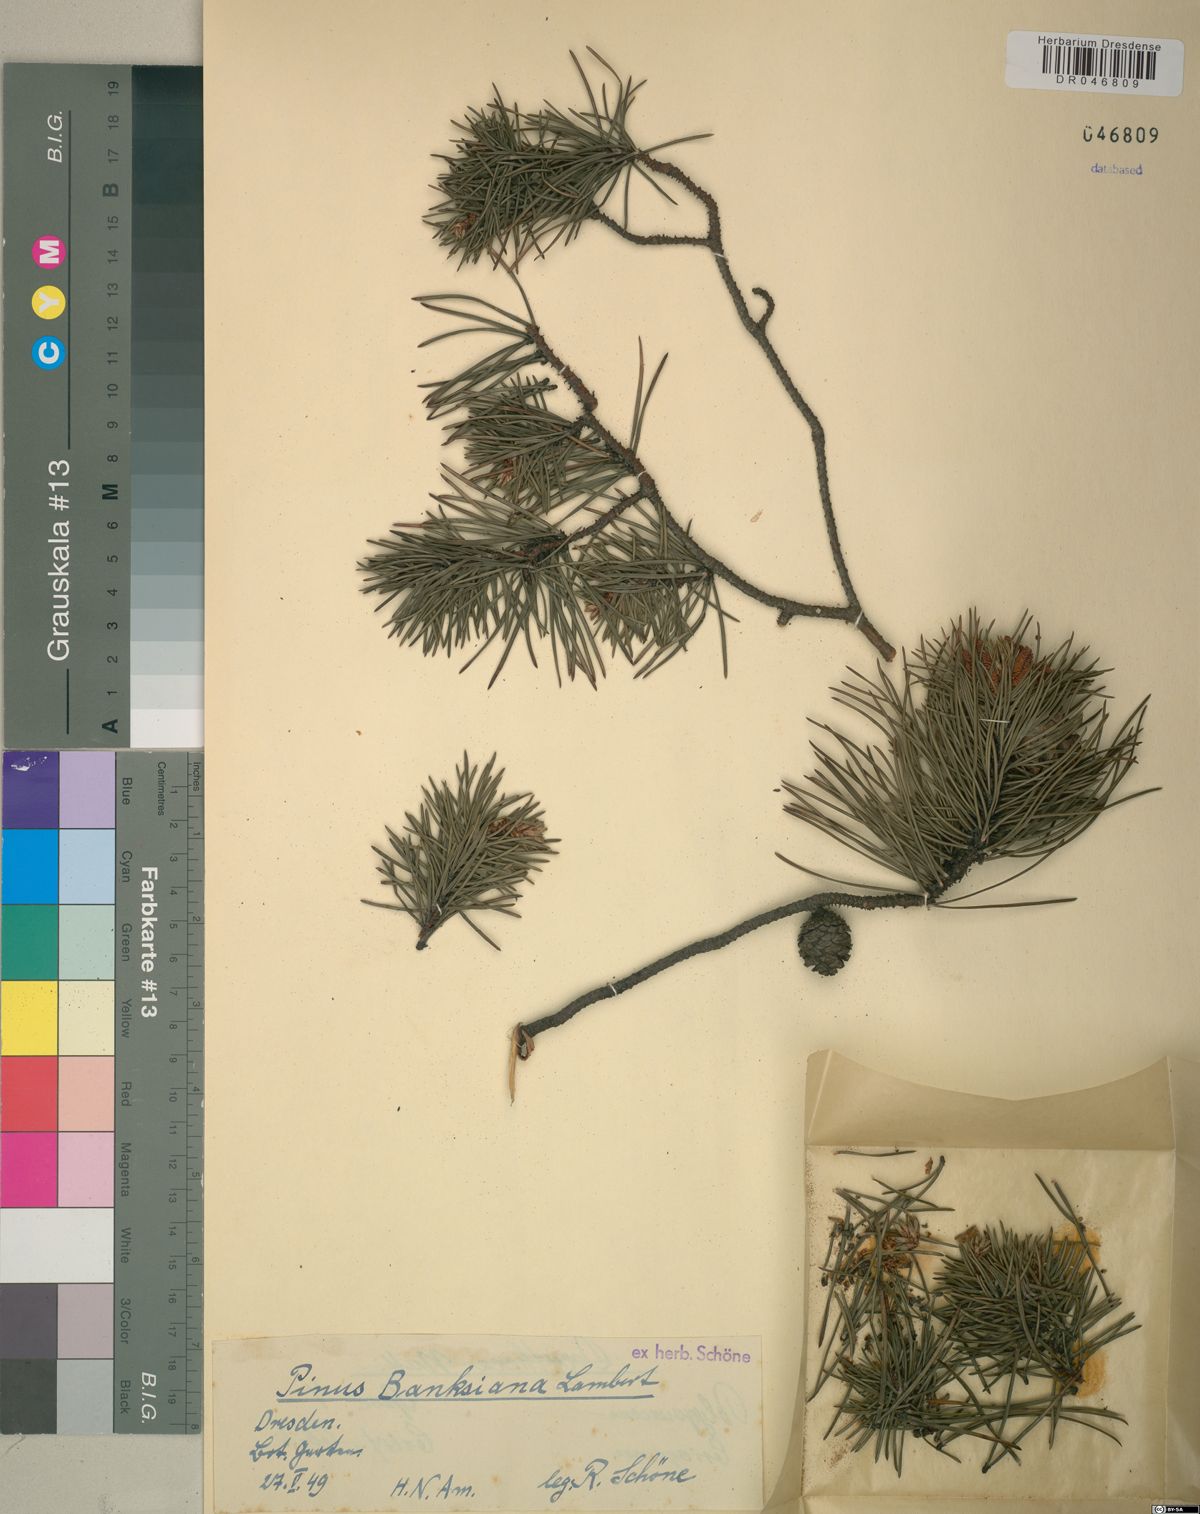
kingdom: Plantae
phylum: Tracheophyta
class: Pinopsida
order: Pinales
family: Pinaceae
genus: Pinus
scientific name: Pinus banksiana
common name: Jack pine
